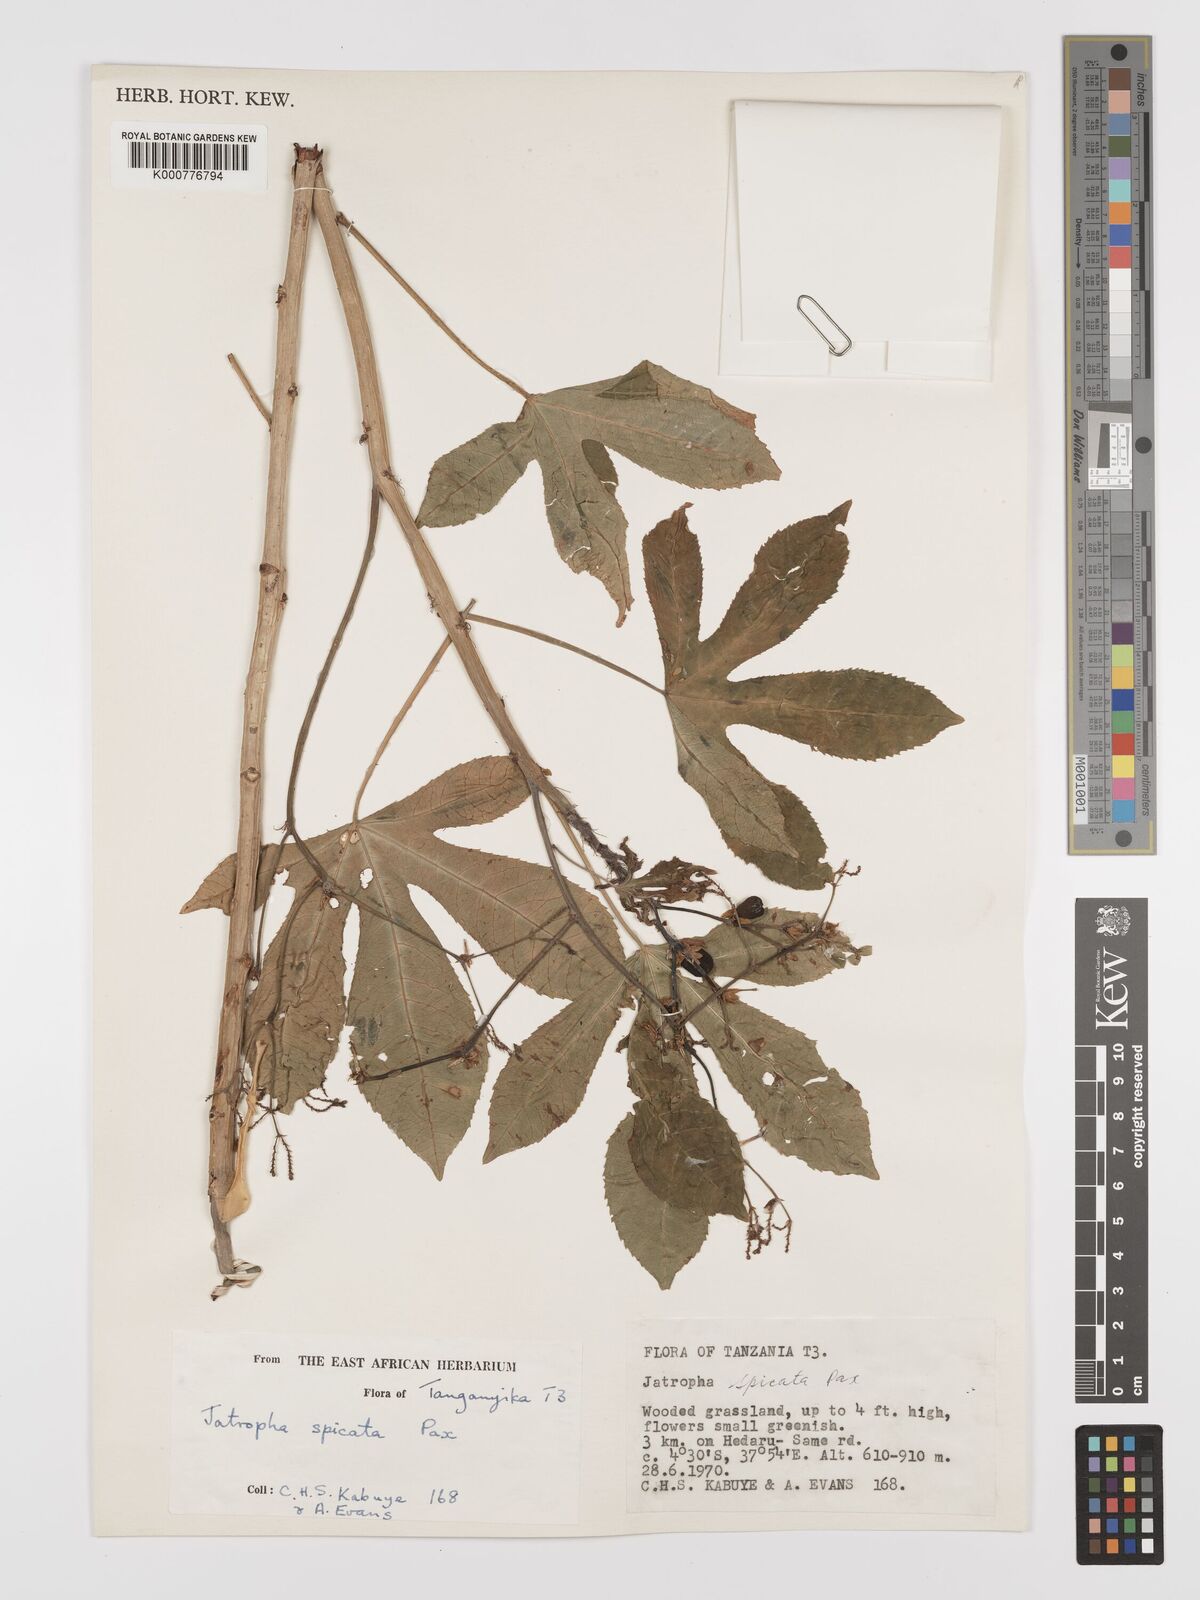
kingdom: Plantae
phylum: Tracheophyta
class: Magnoliopsida
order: Malpighiales
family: Euphorbiaceae
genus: Jatropha
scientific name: Jatropha spicata
